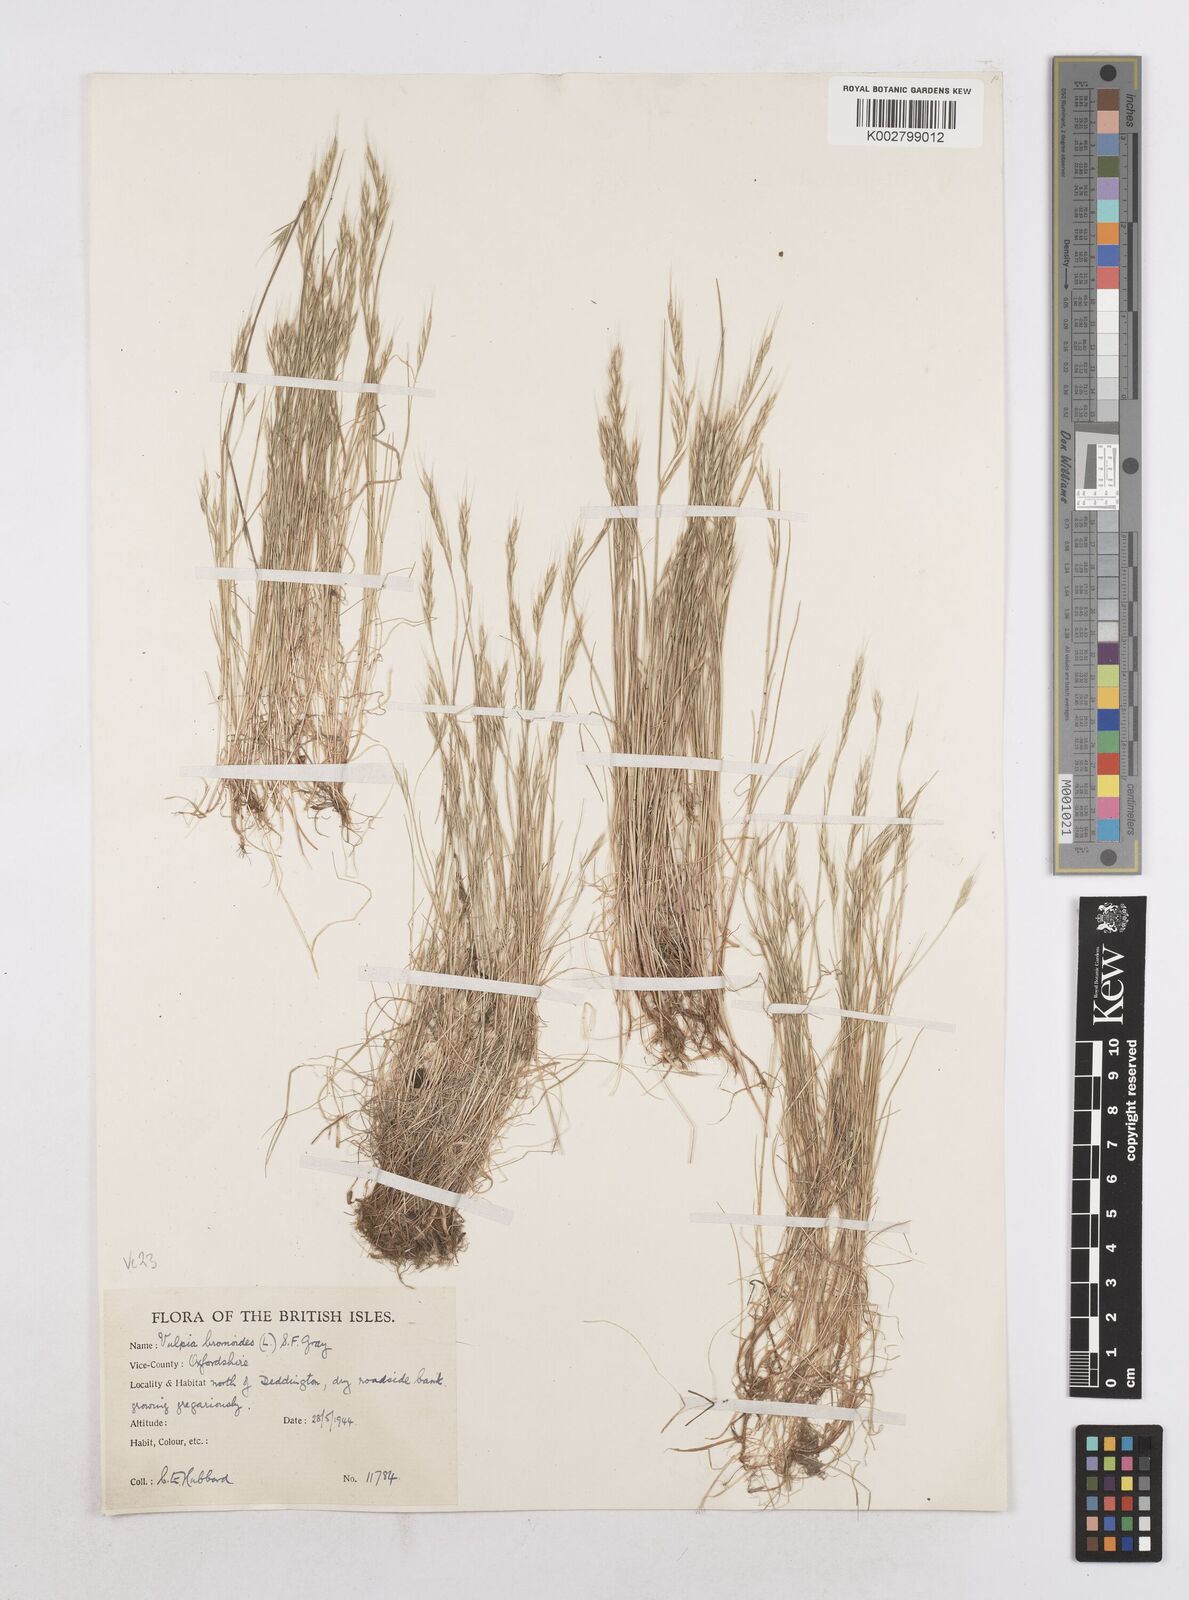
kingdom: Plantae
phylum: Tracheophyta
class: Liliopsida
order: Poales
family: Poaceae
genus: Festuca
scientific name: Festuca bromoides
